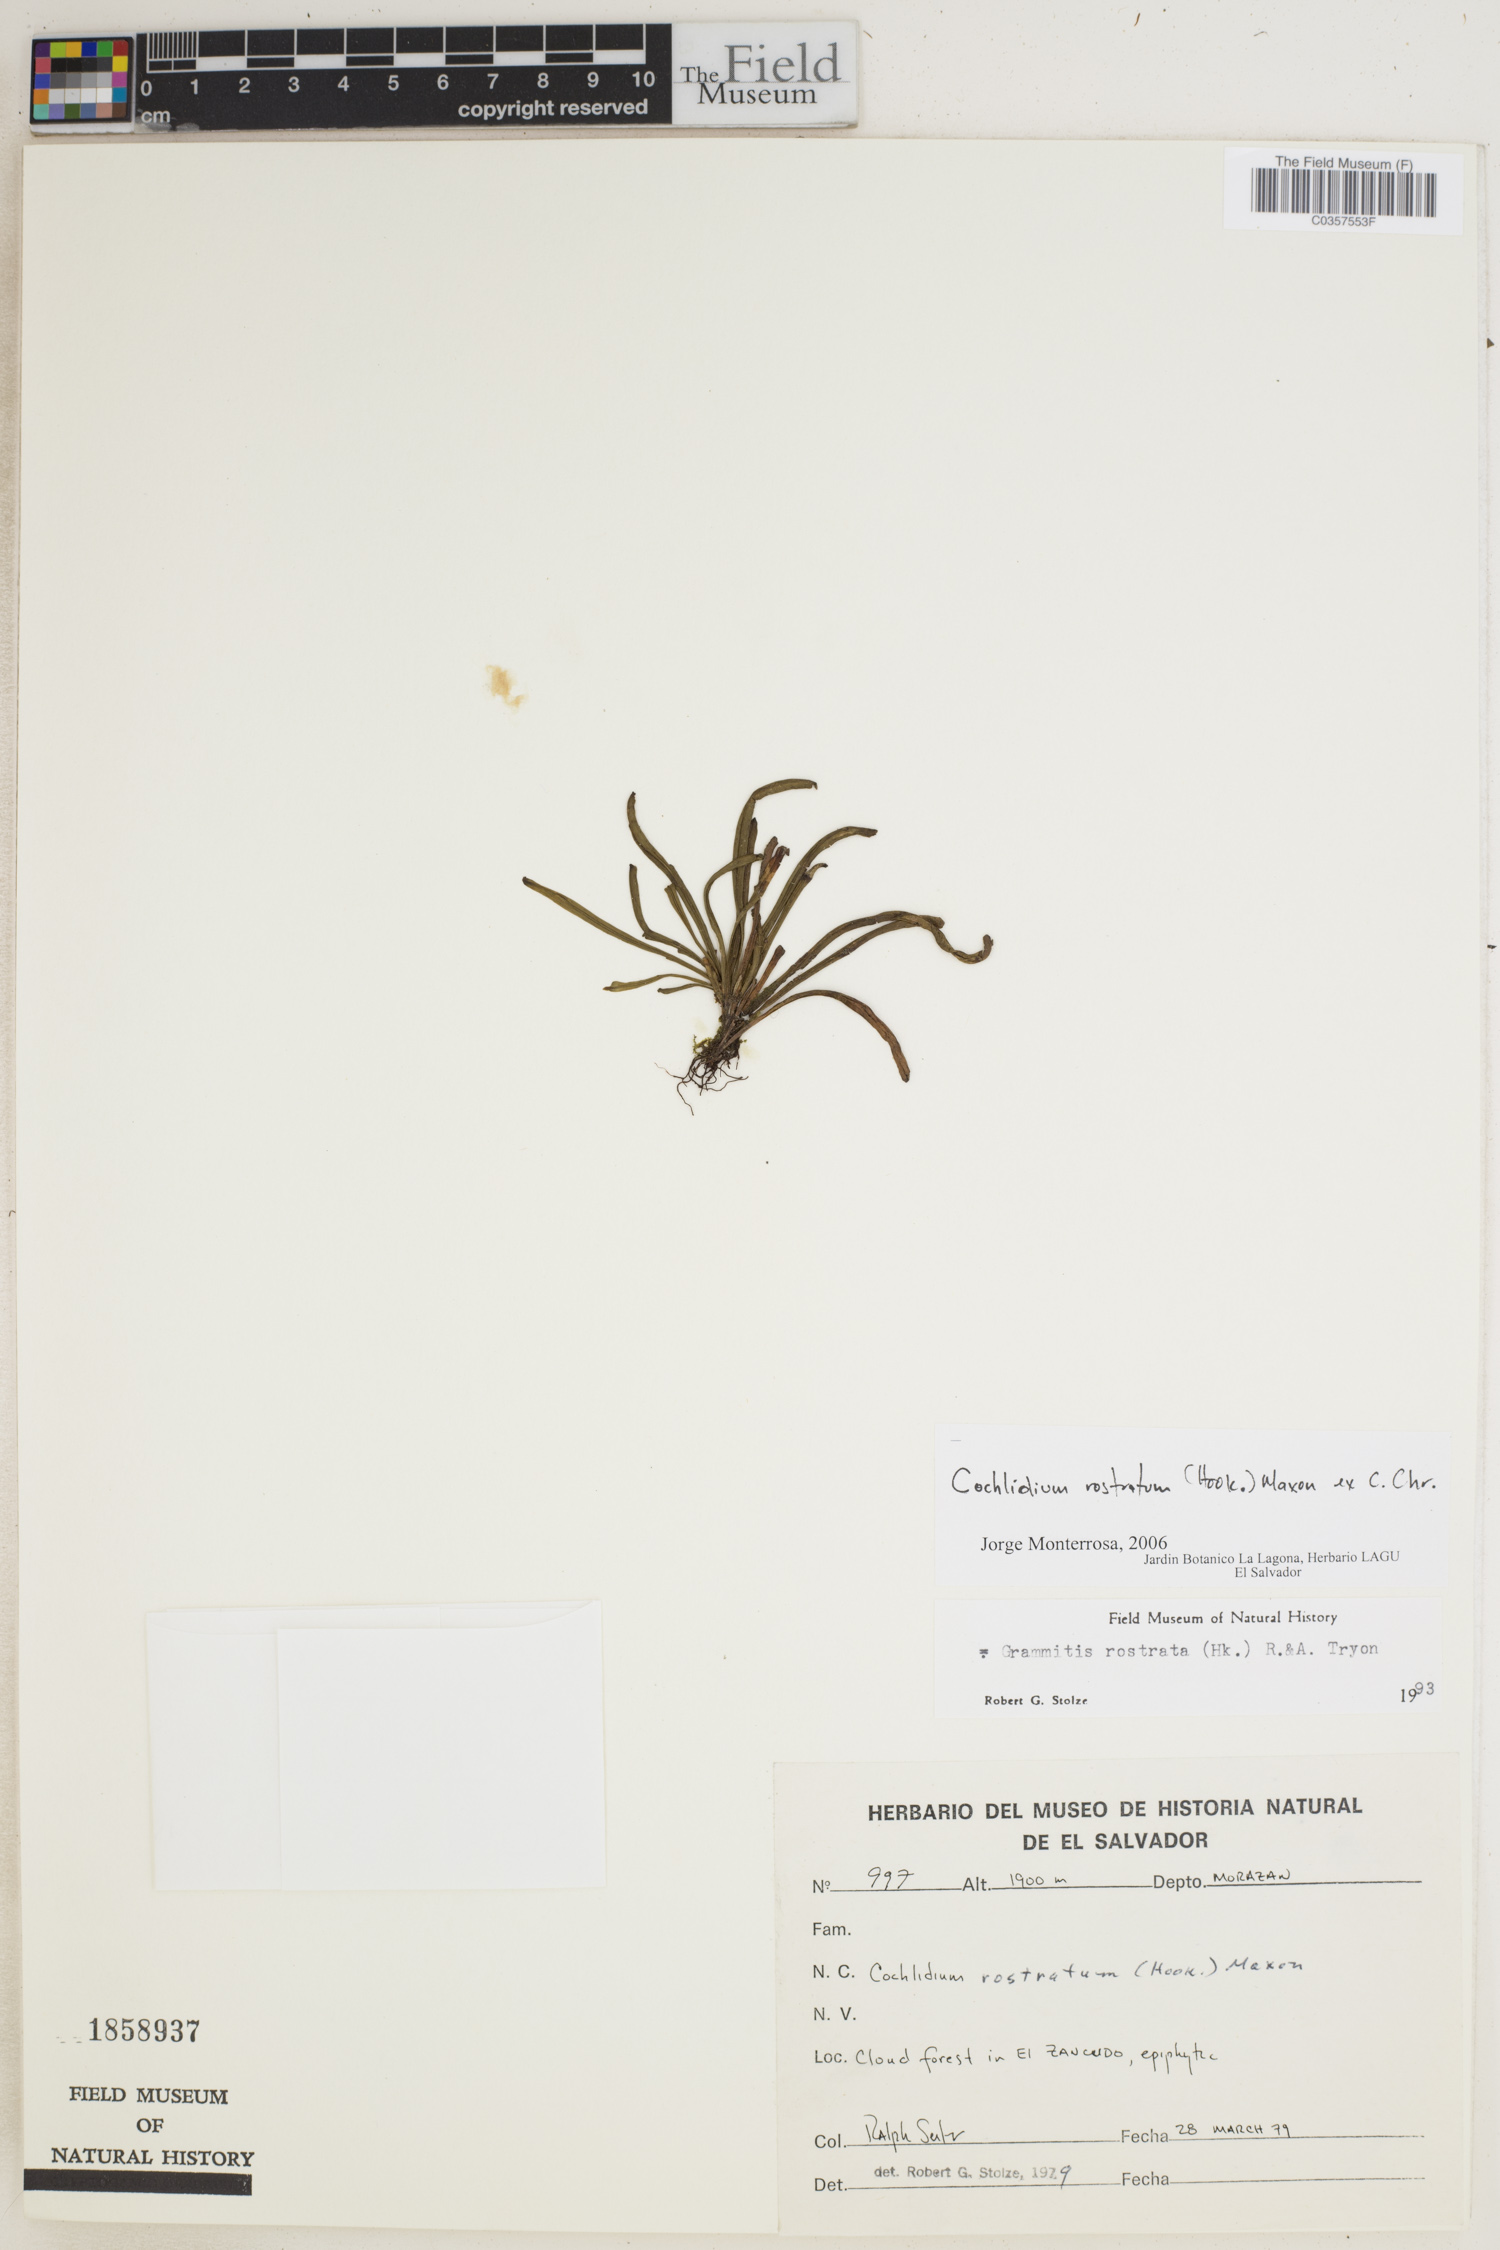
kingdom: Plantae
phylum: Tracheophyta
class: Polypodiopsida
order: Polypodiales
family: Polypodiaceae
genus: Cochlidium
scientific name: Cochlidium rostratum
